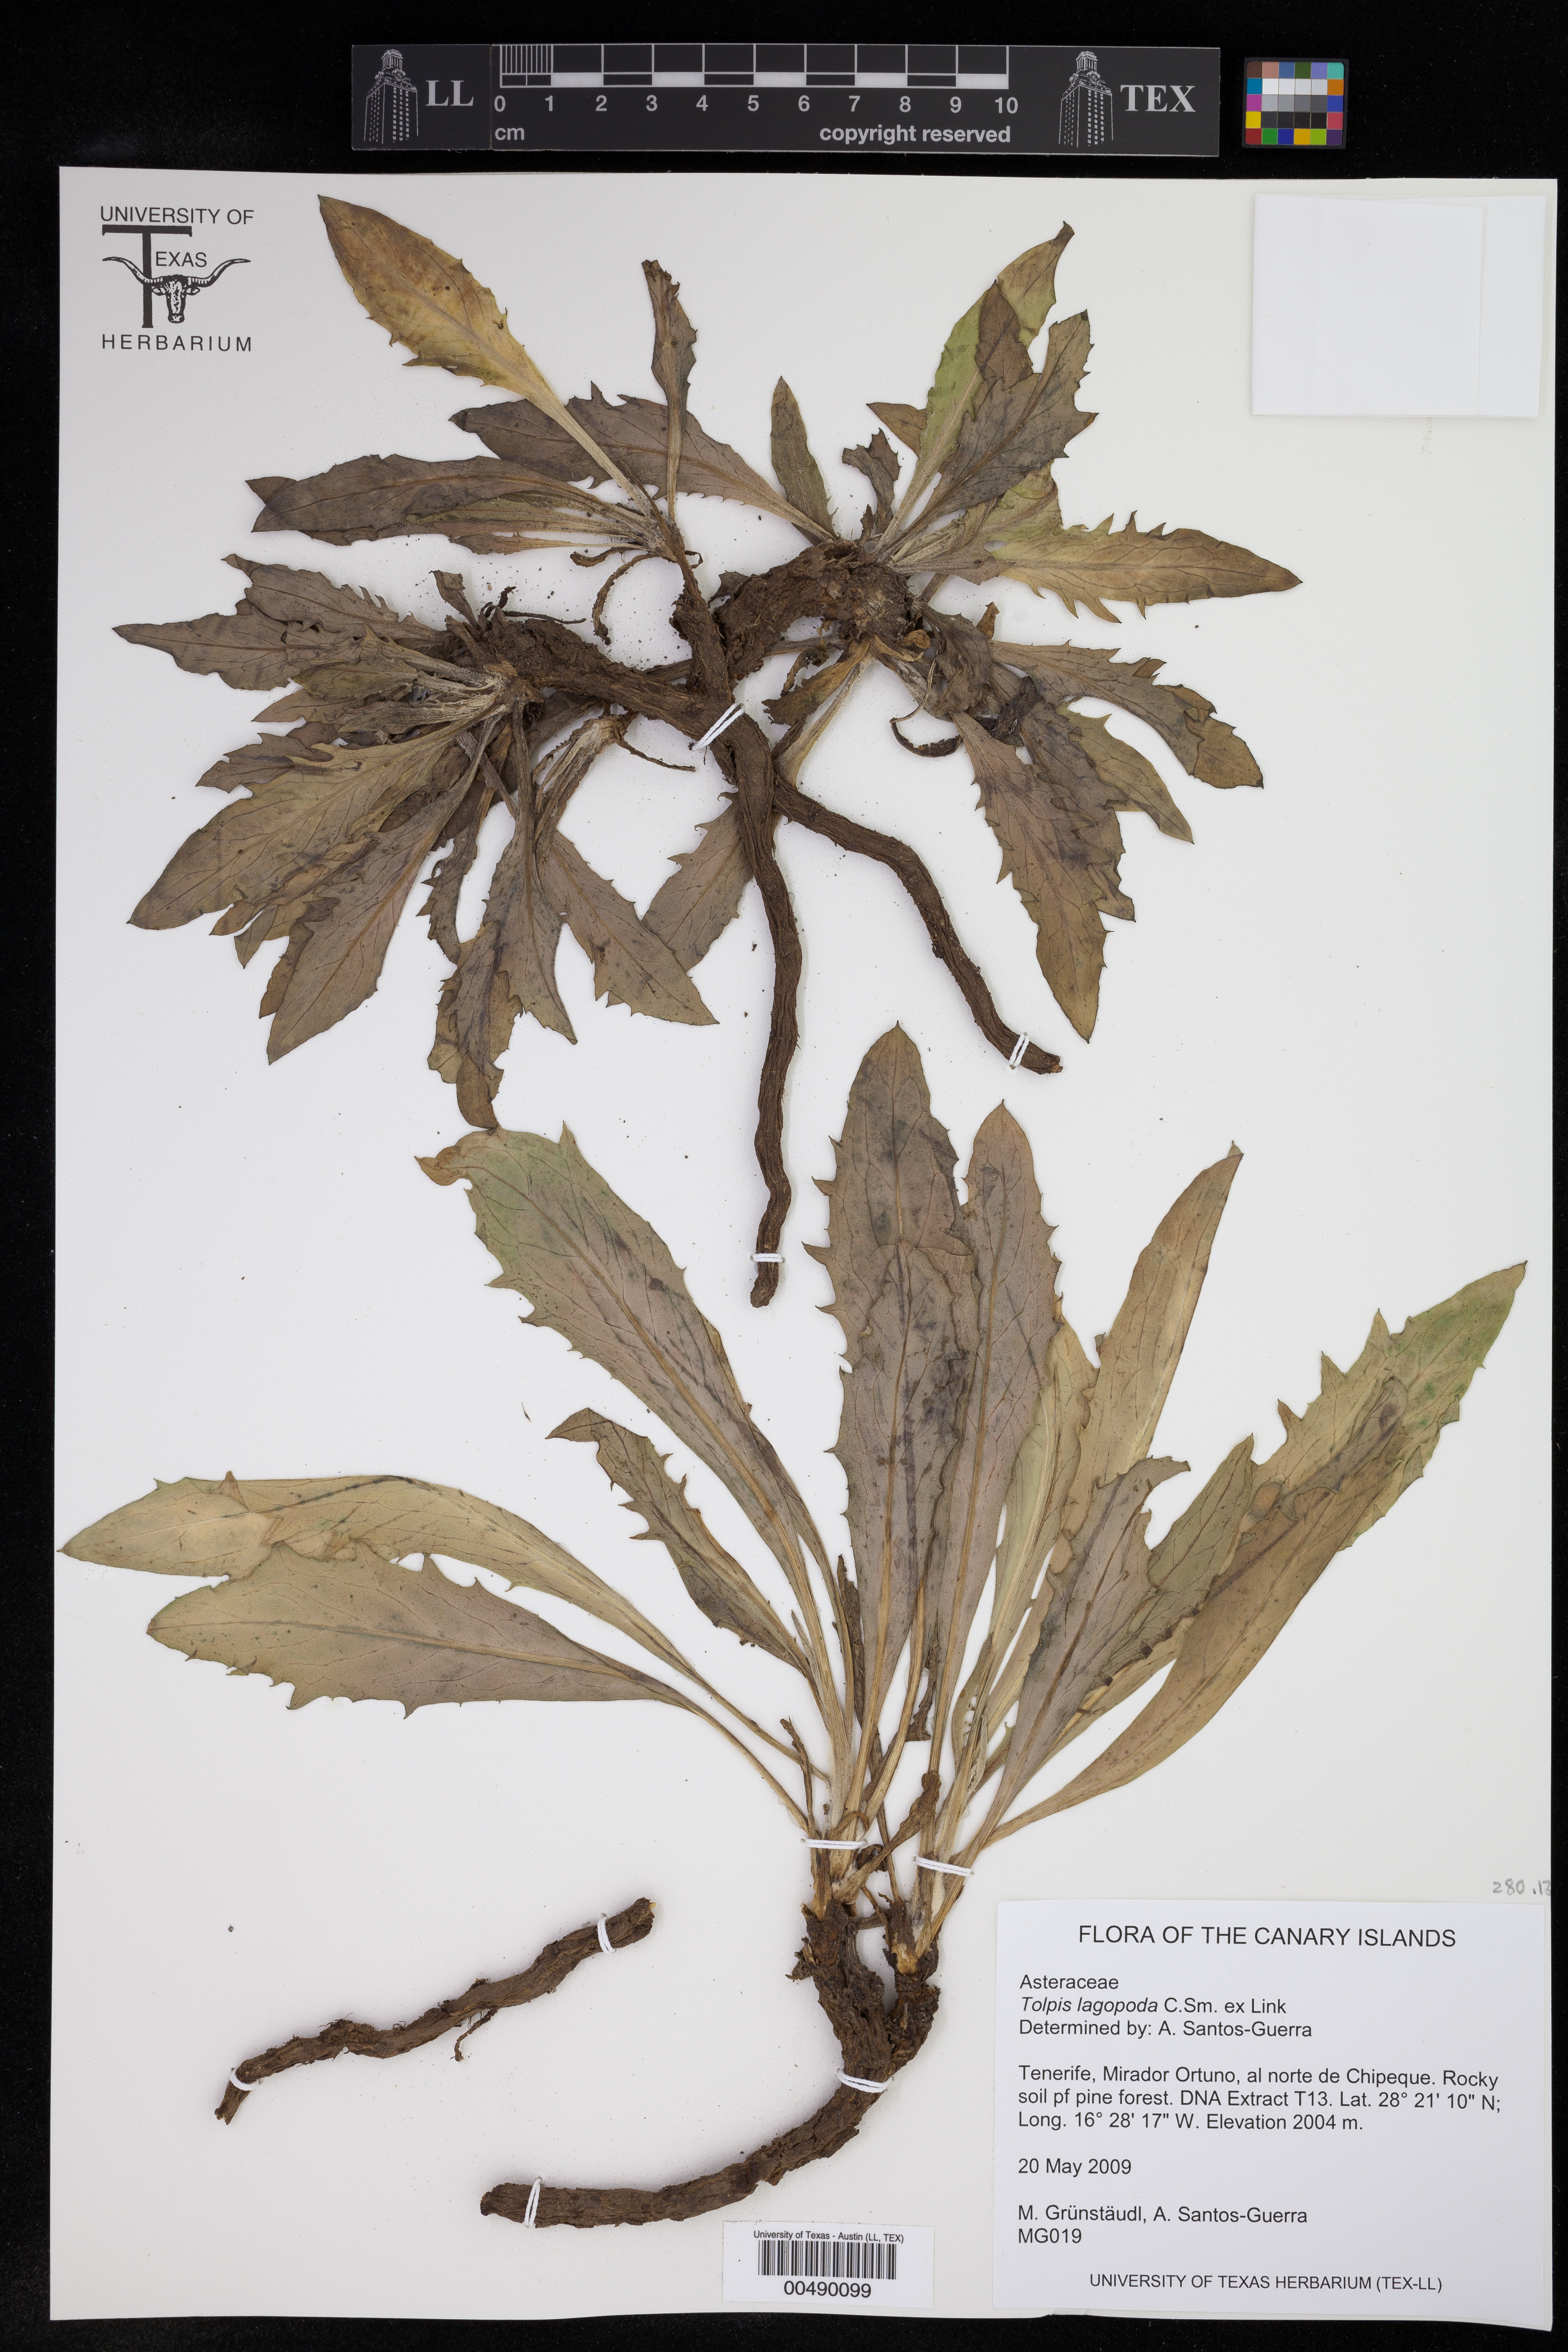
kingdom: Plantae
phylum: Tracheophyta
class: Magnoliopsida
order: Asterales
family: Asteraceae
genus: Tolpis
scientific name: Tolpis lagopoda
